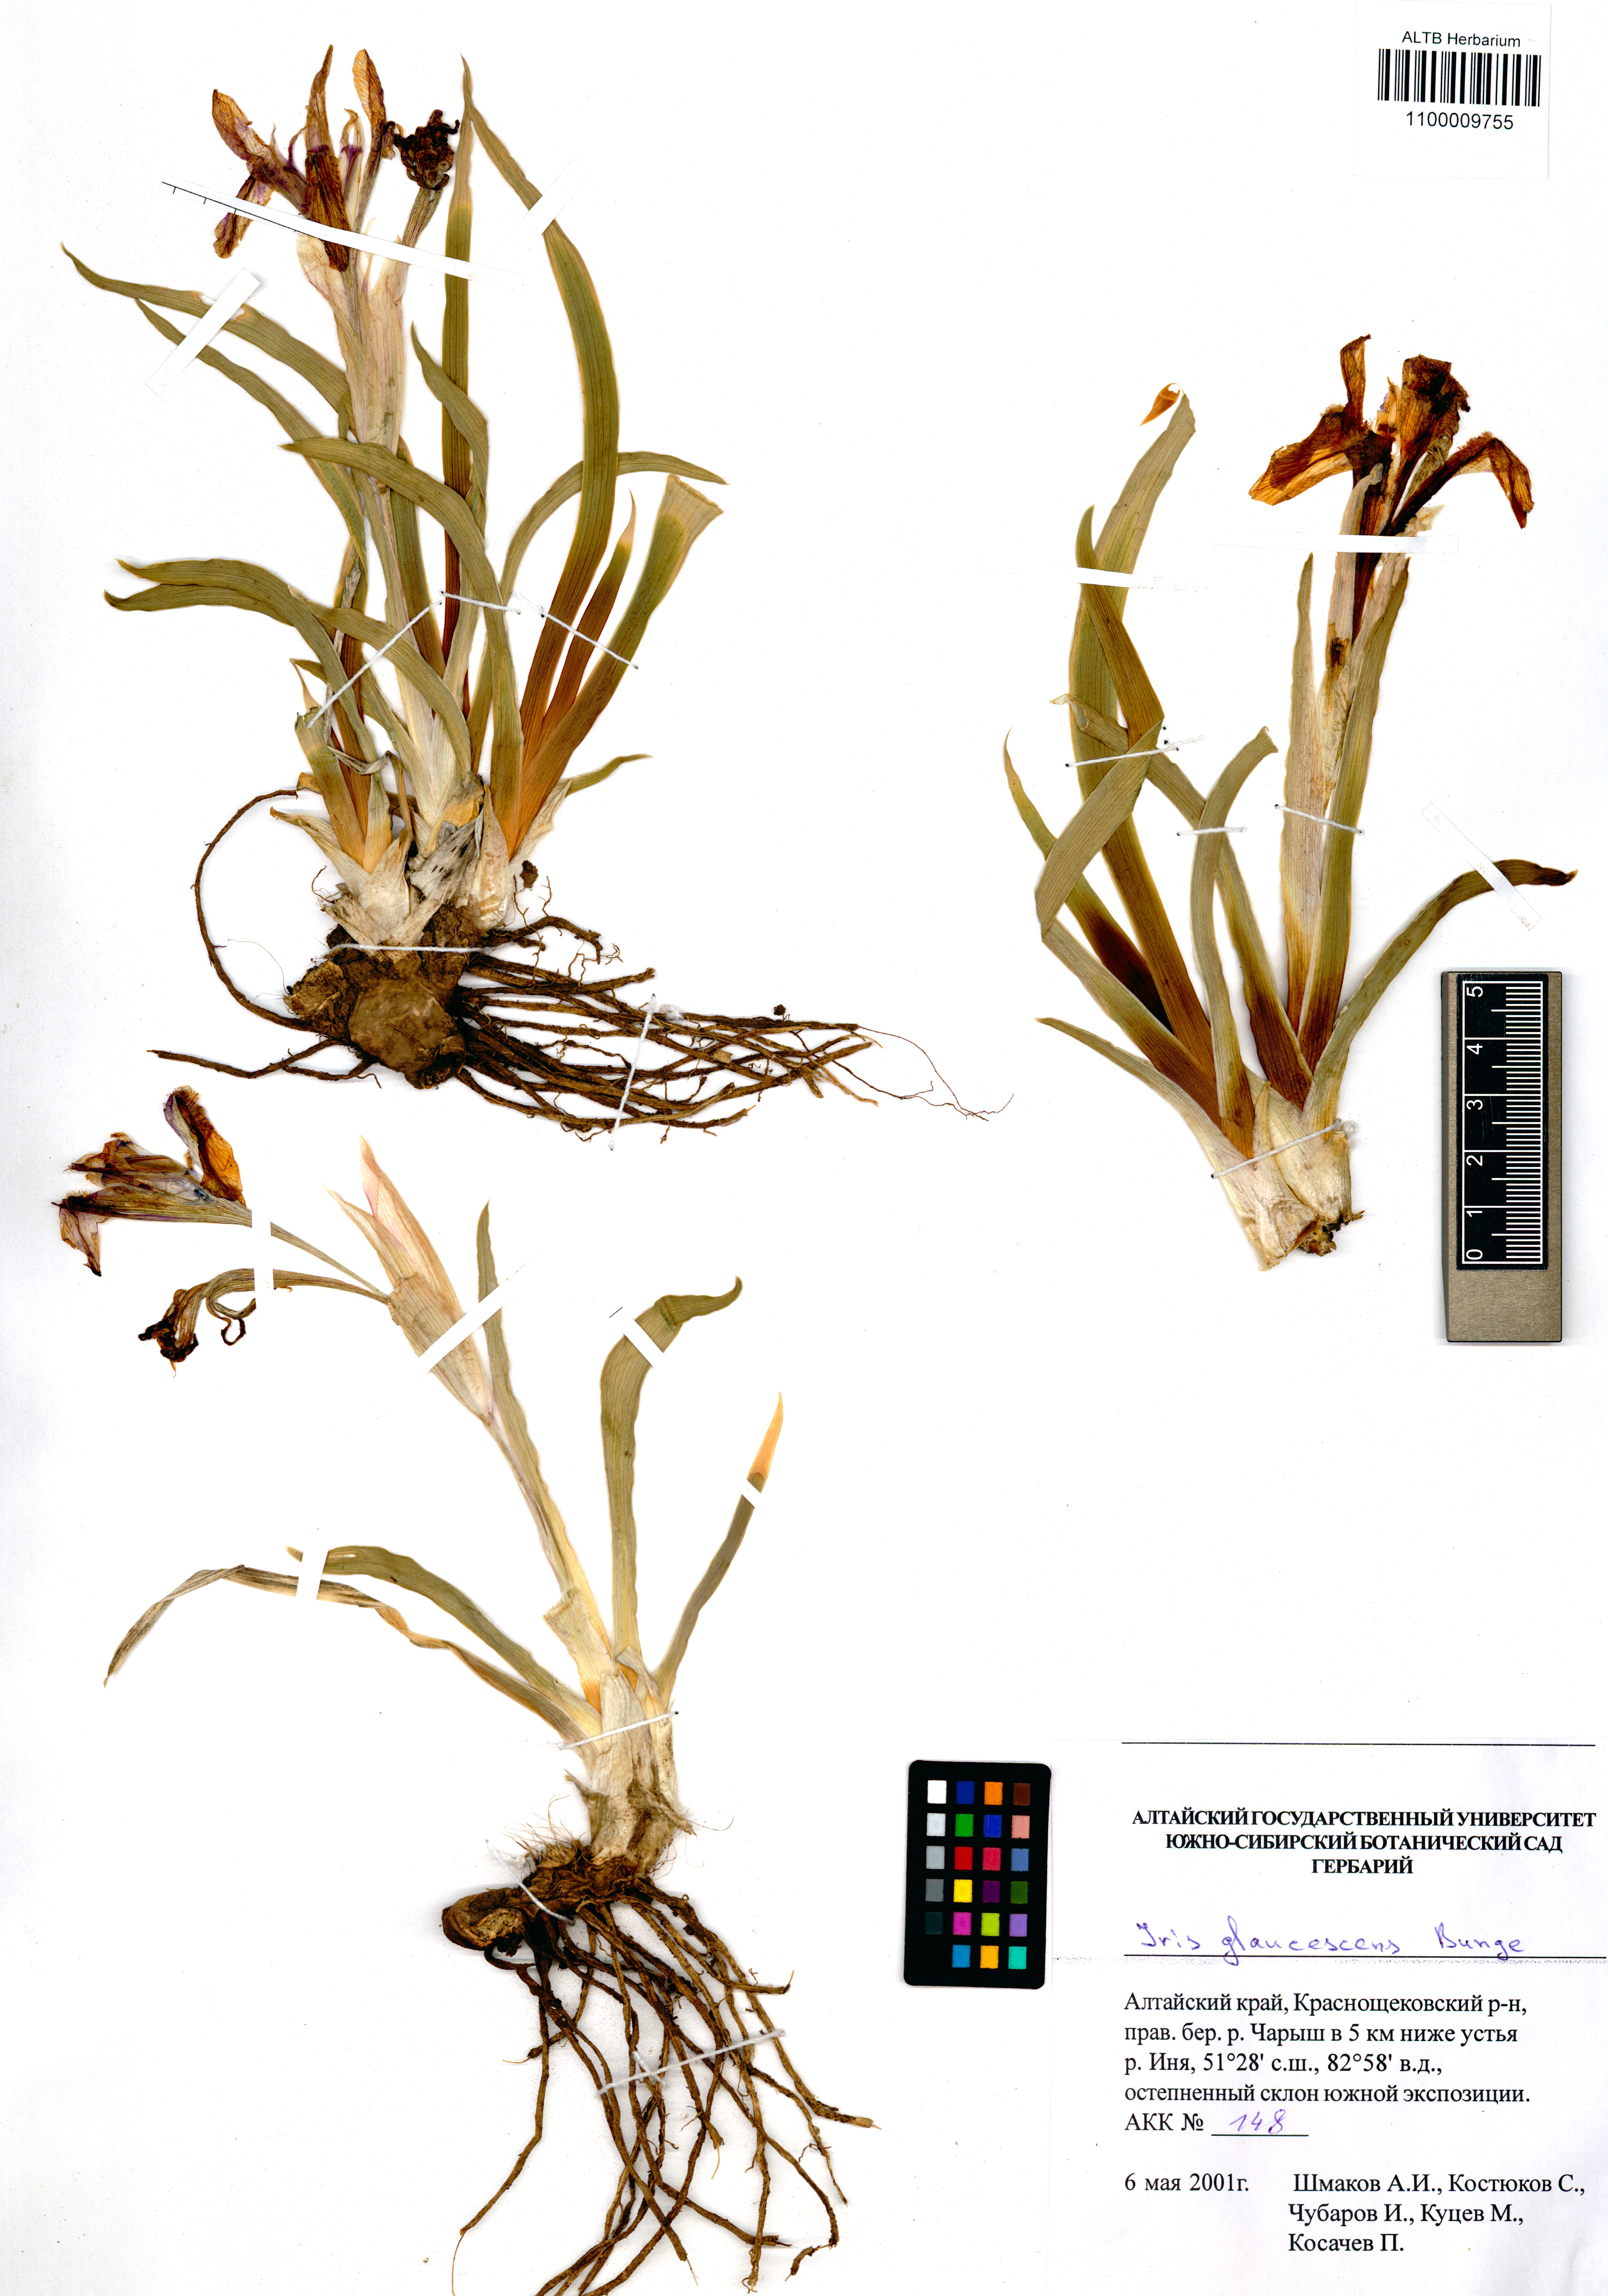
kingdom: Plantae
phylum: Tracheophyta
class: Liliopsida
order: Asparagales
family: Iridaceae
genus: Iris
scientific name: Iris glaucescens
